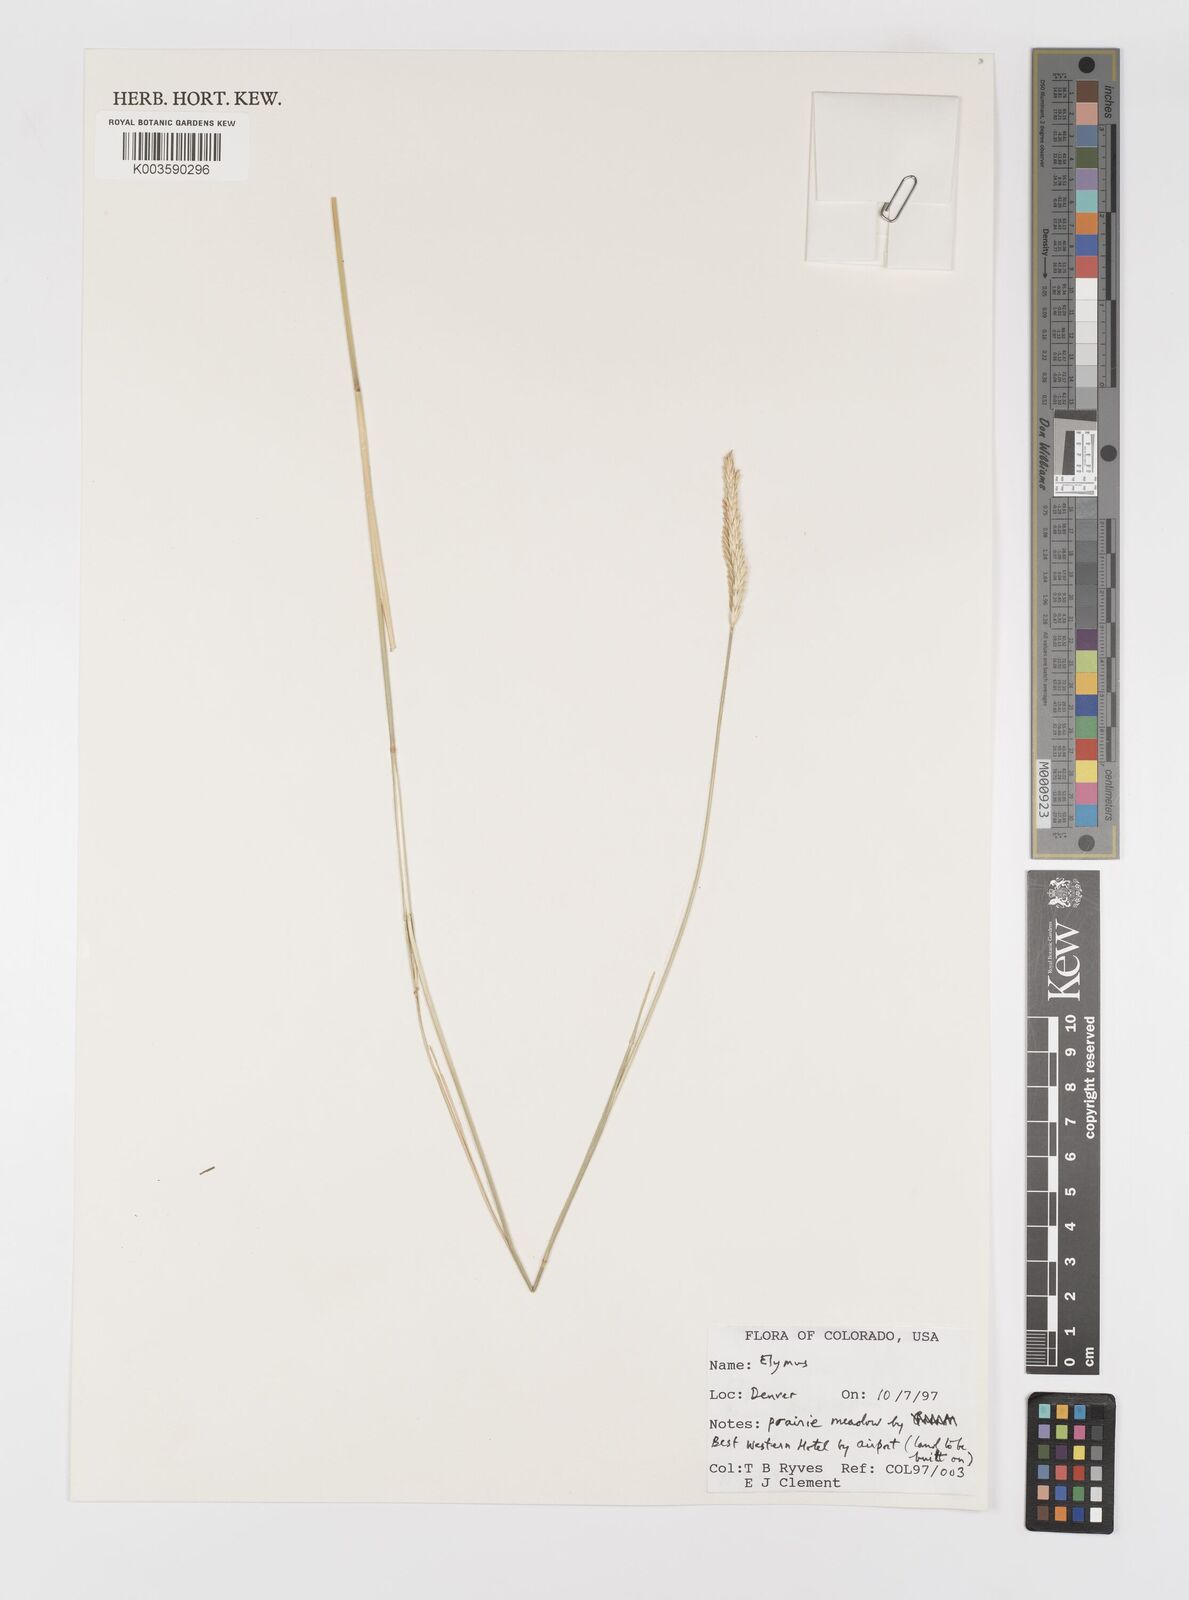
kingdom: Plantae
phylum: Tracheophyta
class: Liliopsida
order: Poales
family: Poaceae
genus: Elymus
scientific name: Elymus
